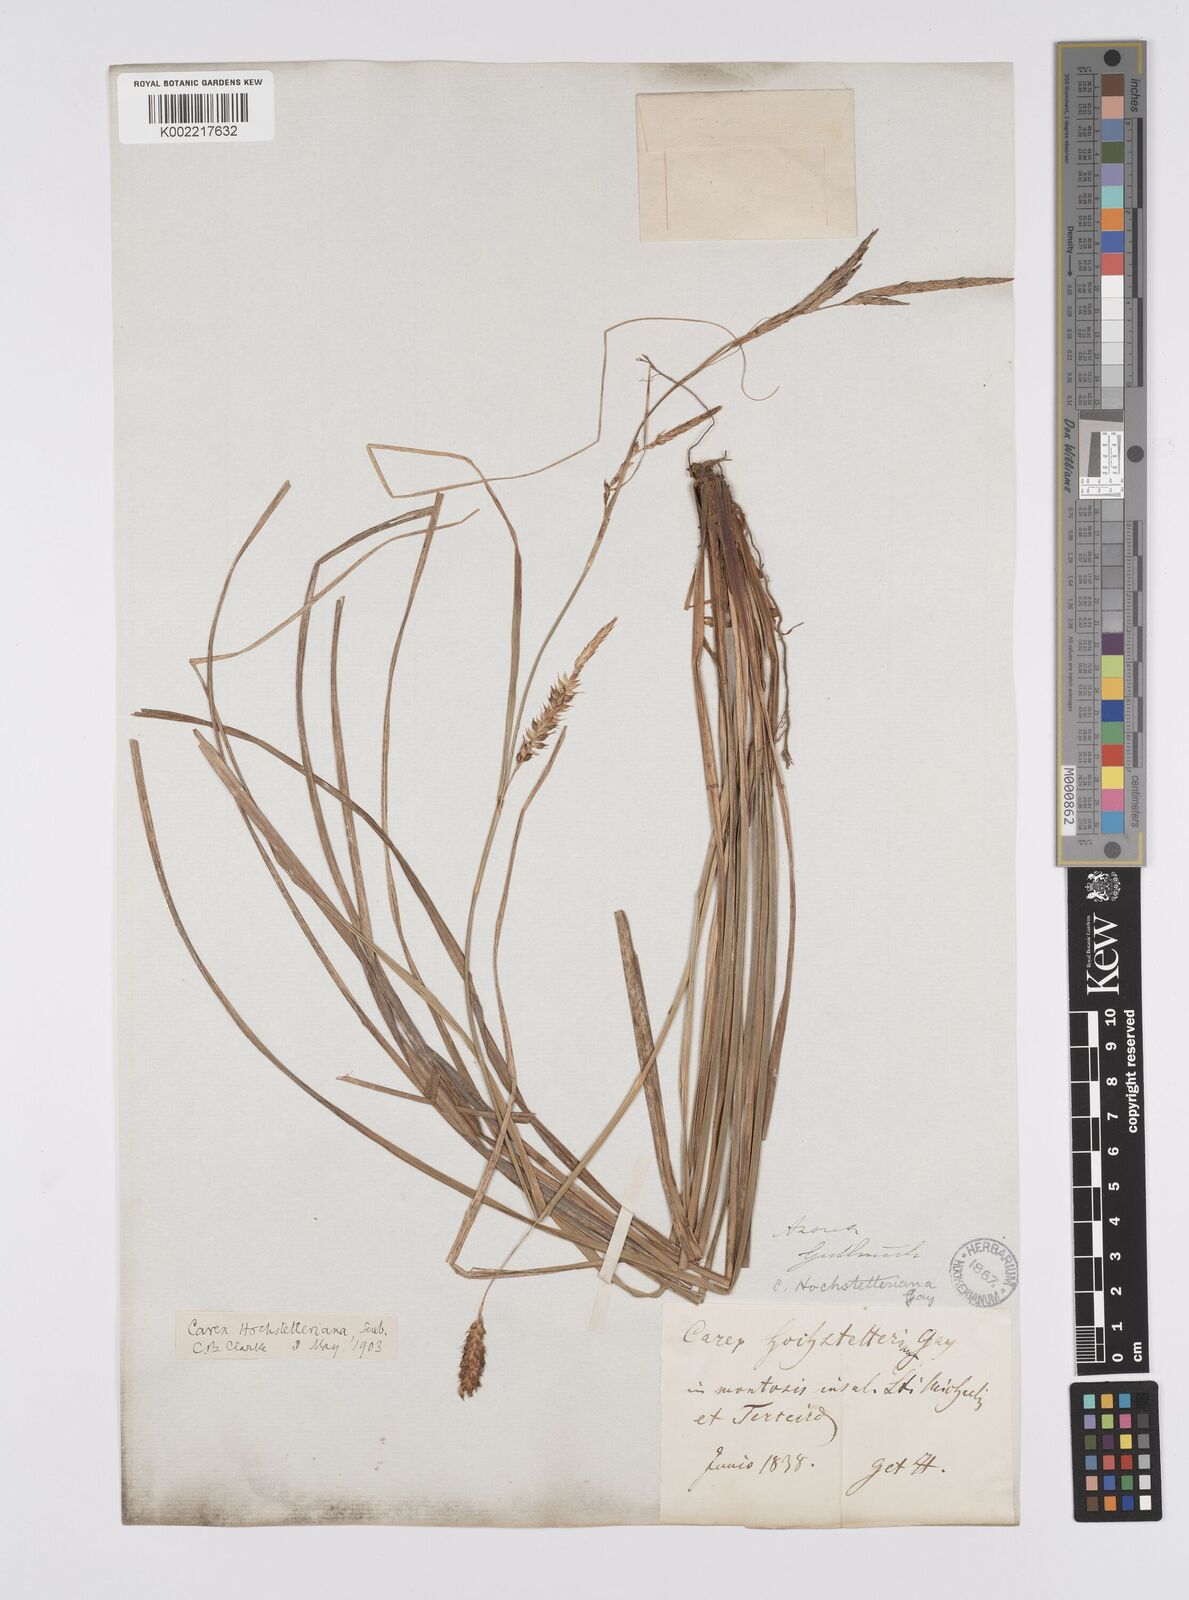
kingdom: Plantae
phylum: Tracheophyta
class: Liliopsida
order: Poales
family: Cyperaceae
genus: Carex
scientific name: Carex hochstetteriana
